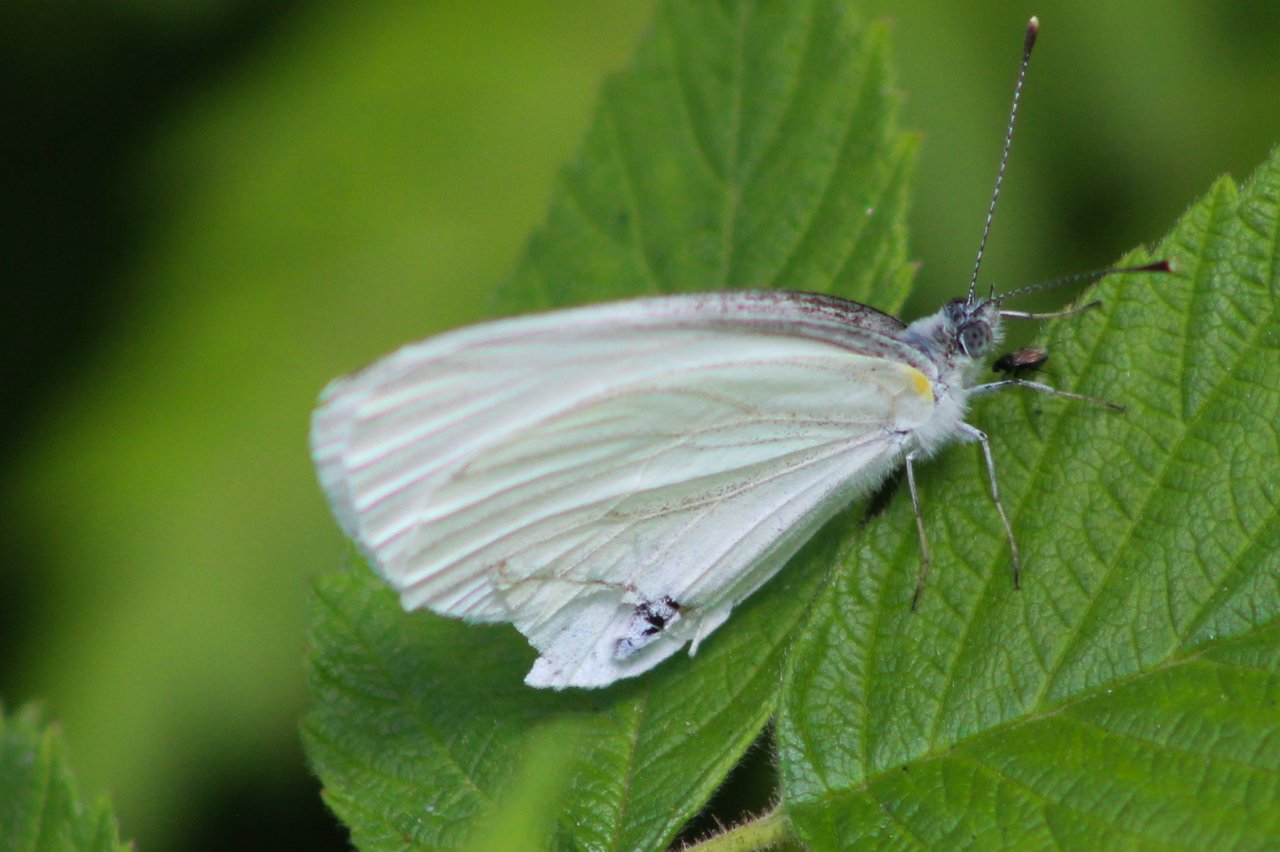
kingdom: Animalia
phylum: Arthropoda
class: Insecta
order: Lepidoptera
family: Pieridae
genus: Pieris
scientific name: Pieris oleracea
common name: Mustard White
